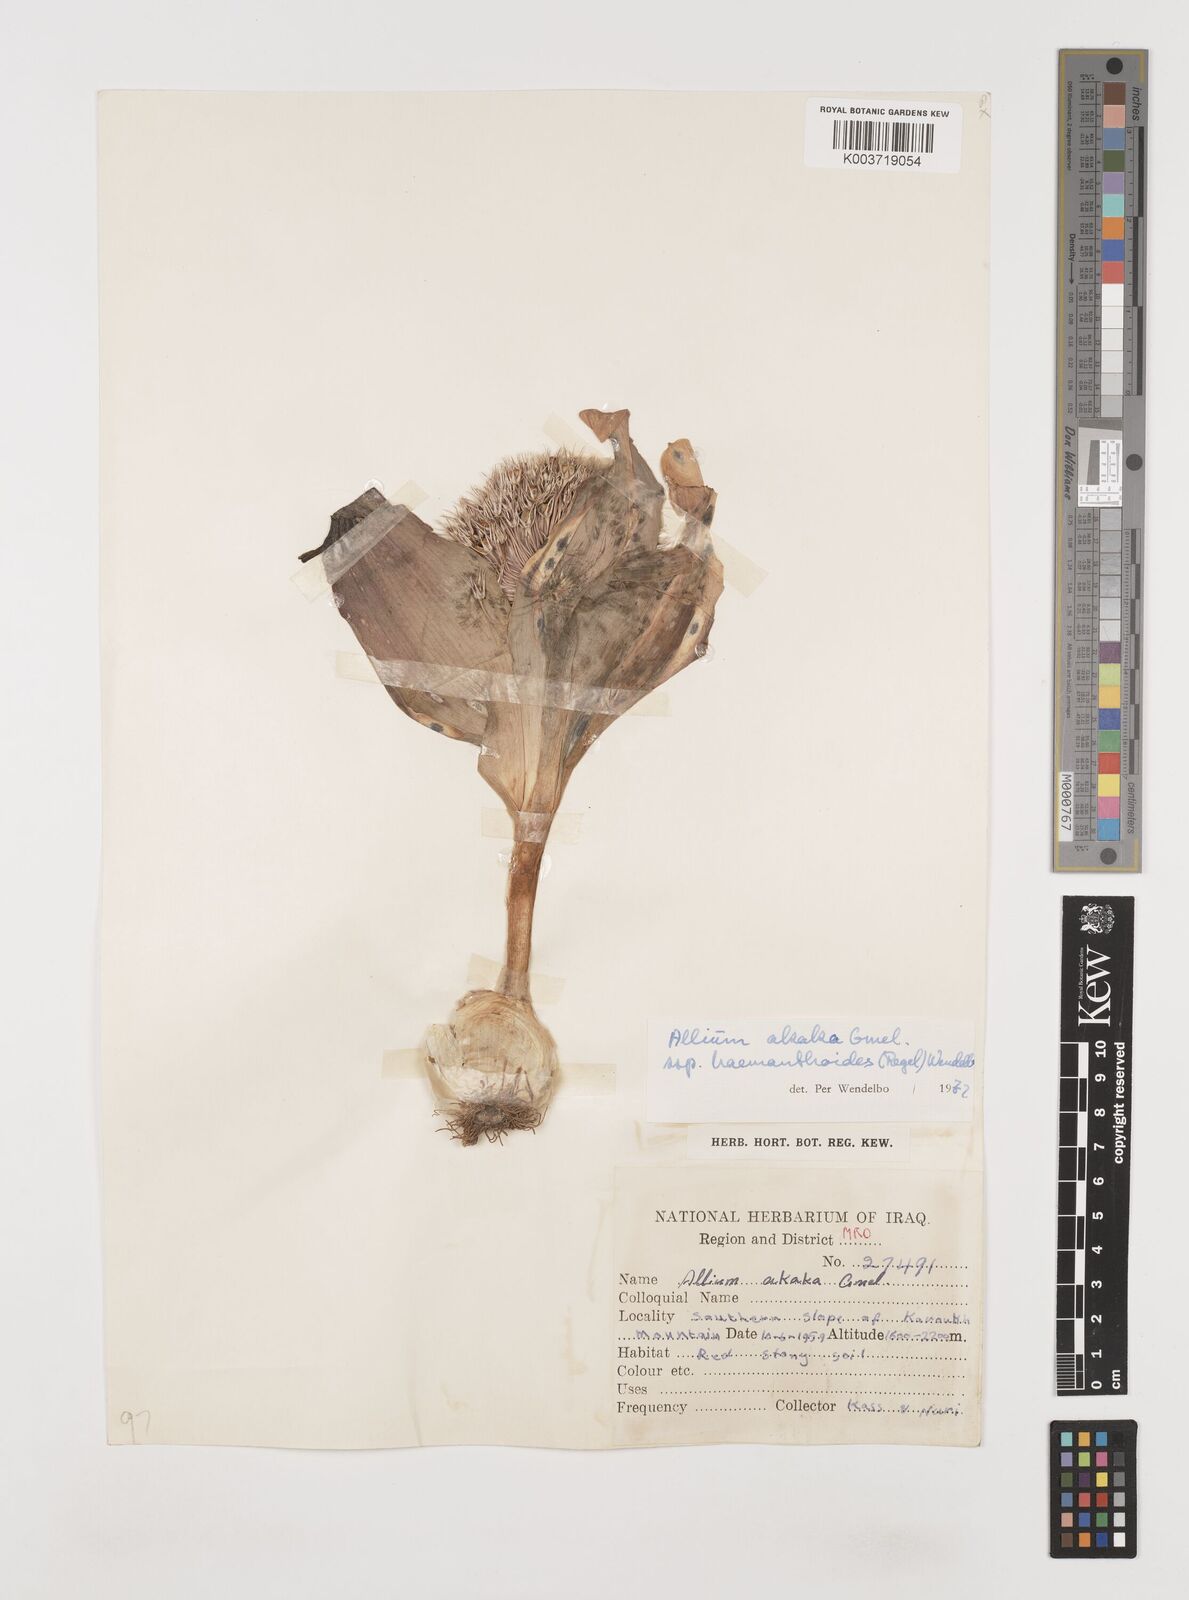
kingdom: Plantae
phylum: Tracheophyta
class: Liliopsida
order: Asparagales
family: Amaryllidaceae
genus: Allium
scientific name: Allium haemanthoides
